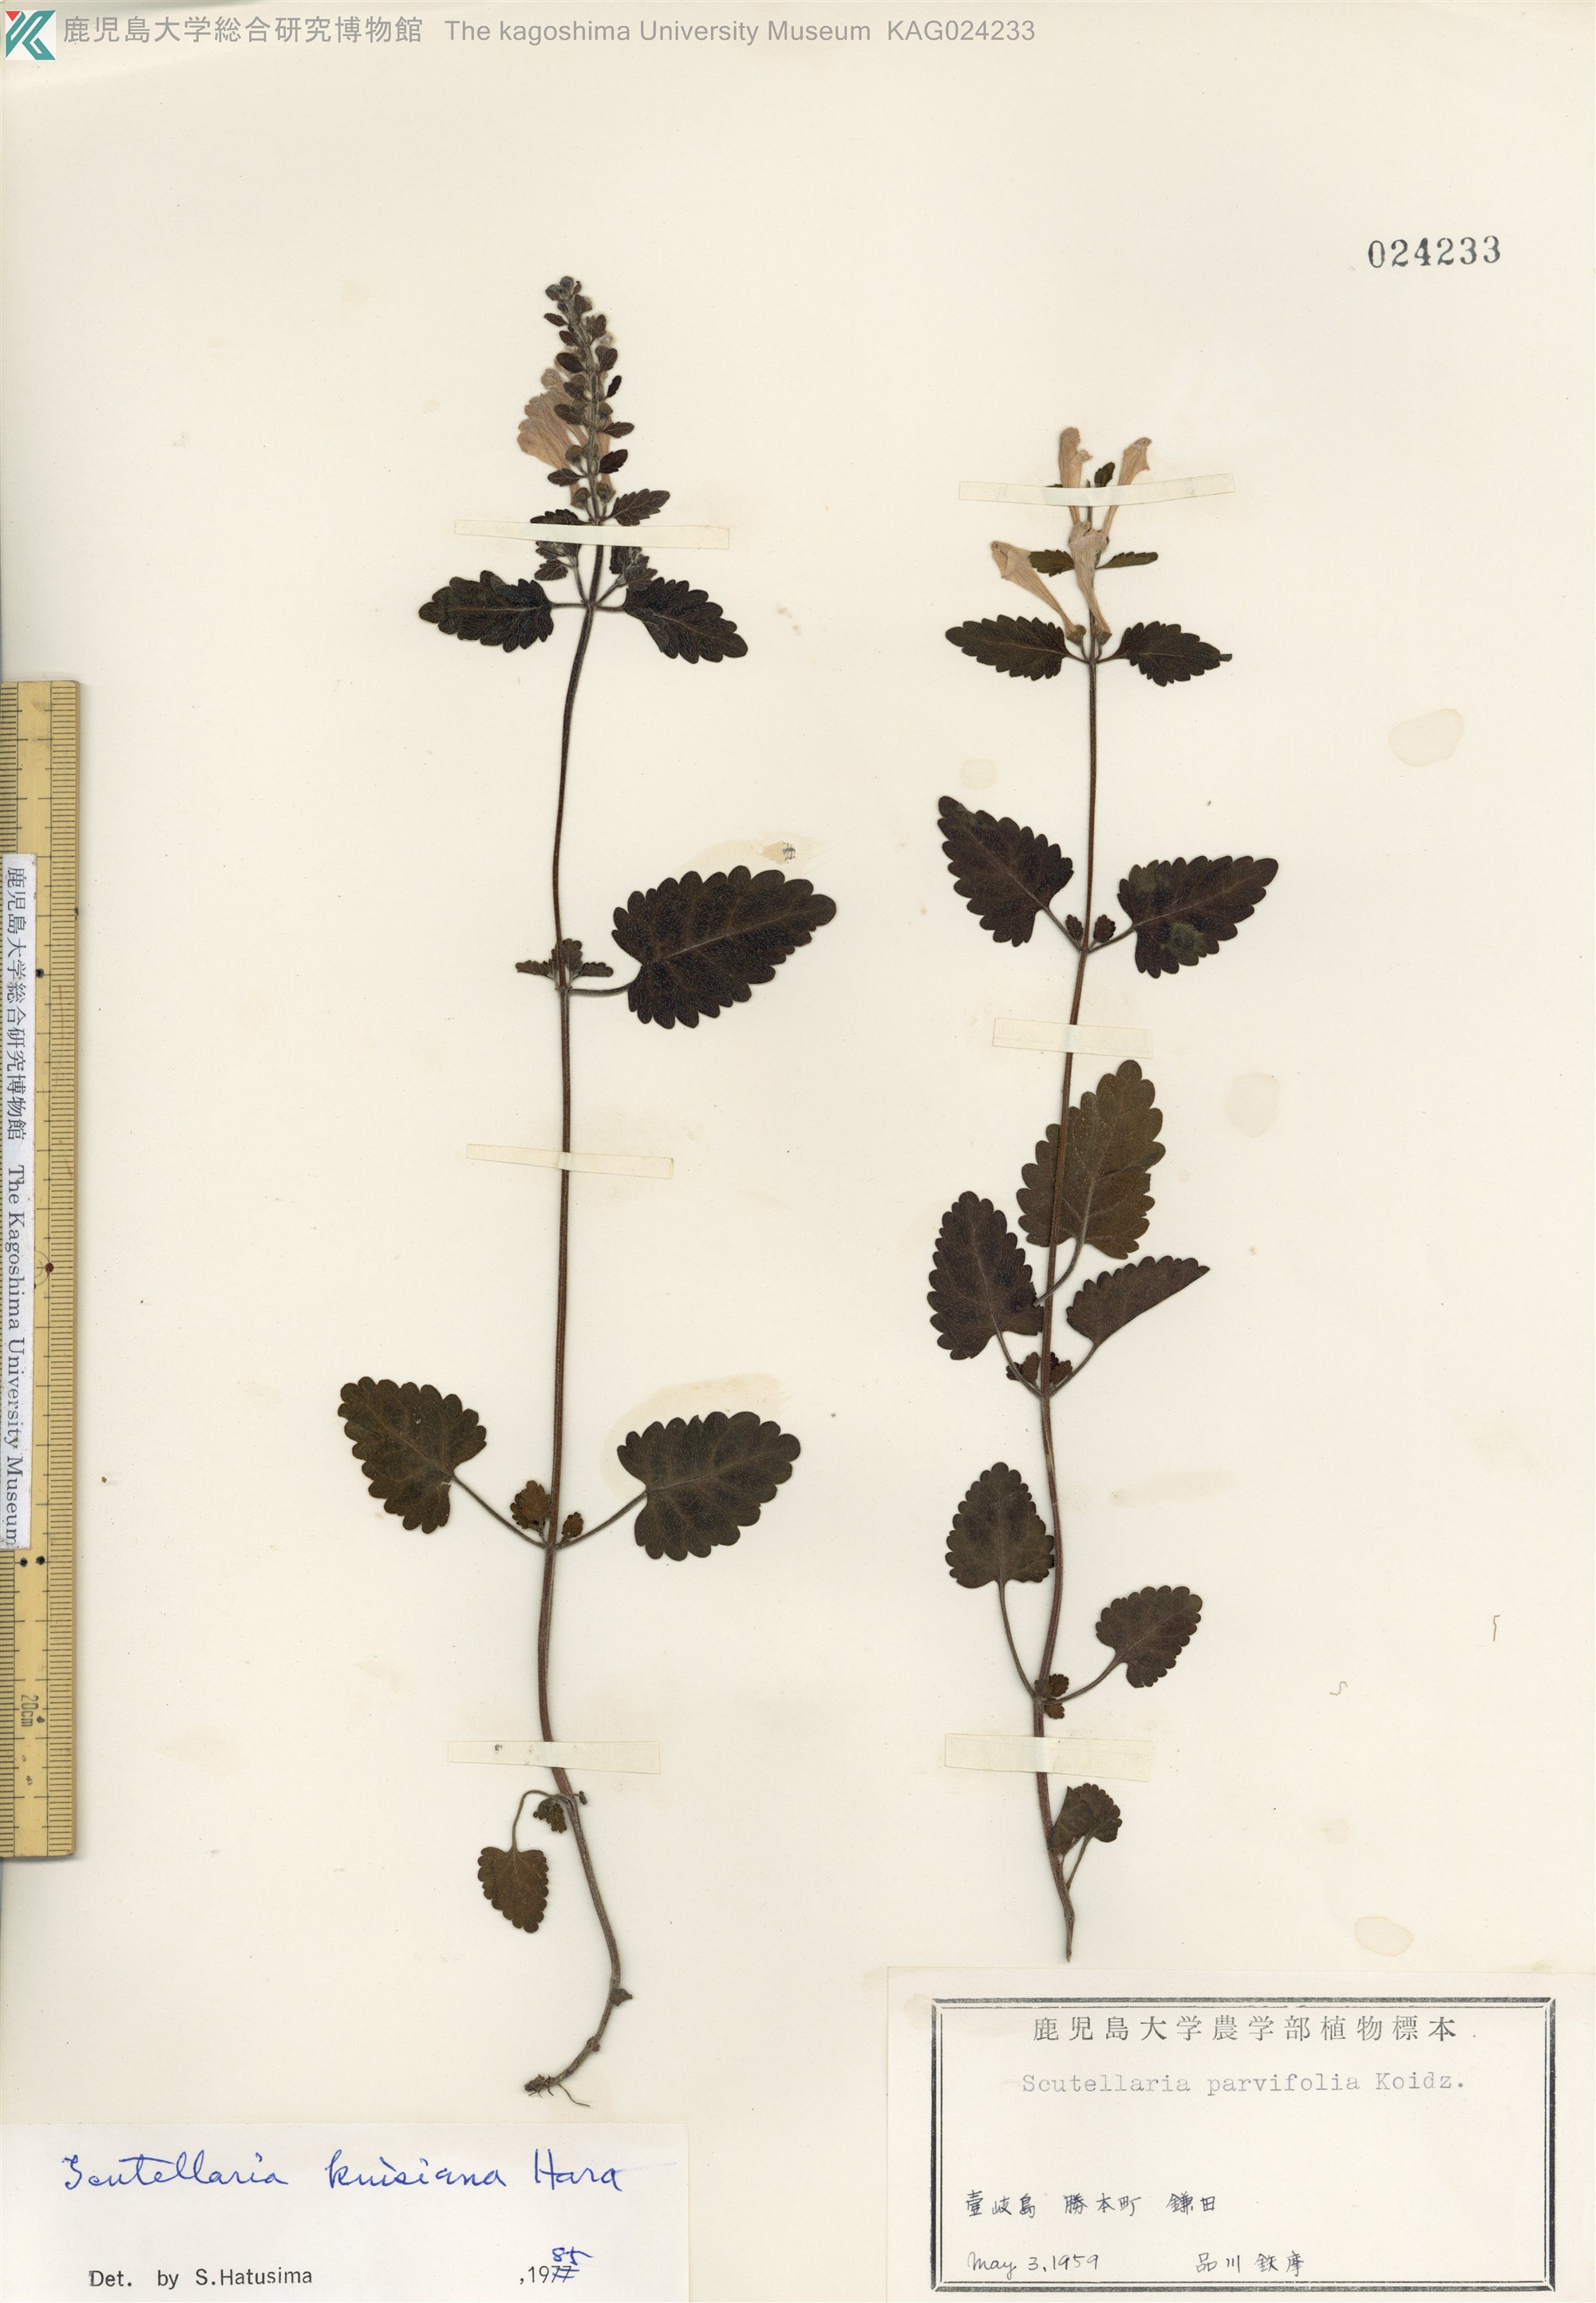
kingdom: Plantae
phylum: Tracheophyta
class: Magnoliopsida
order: Lamiales
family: Lamiaceae
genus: Scutellaria
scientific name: Scutellaria kiusiana
